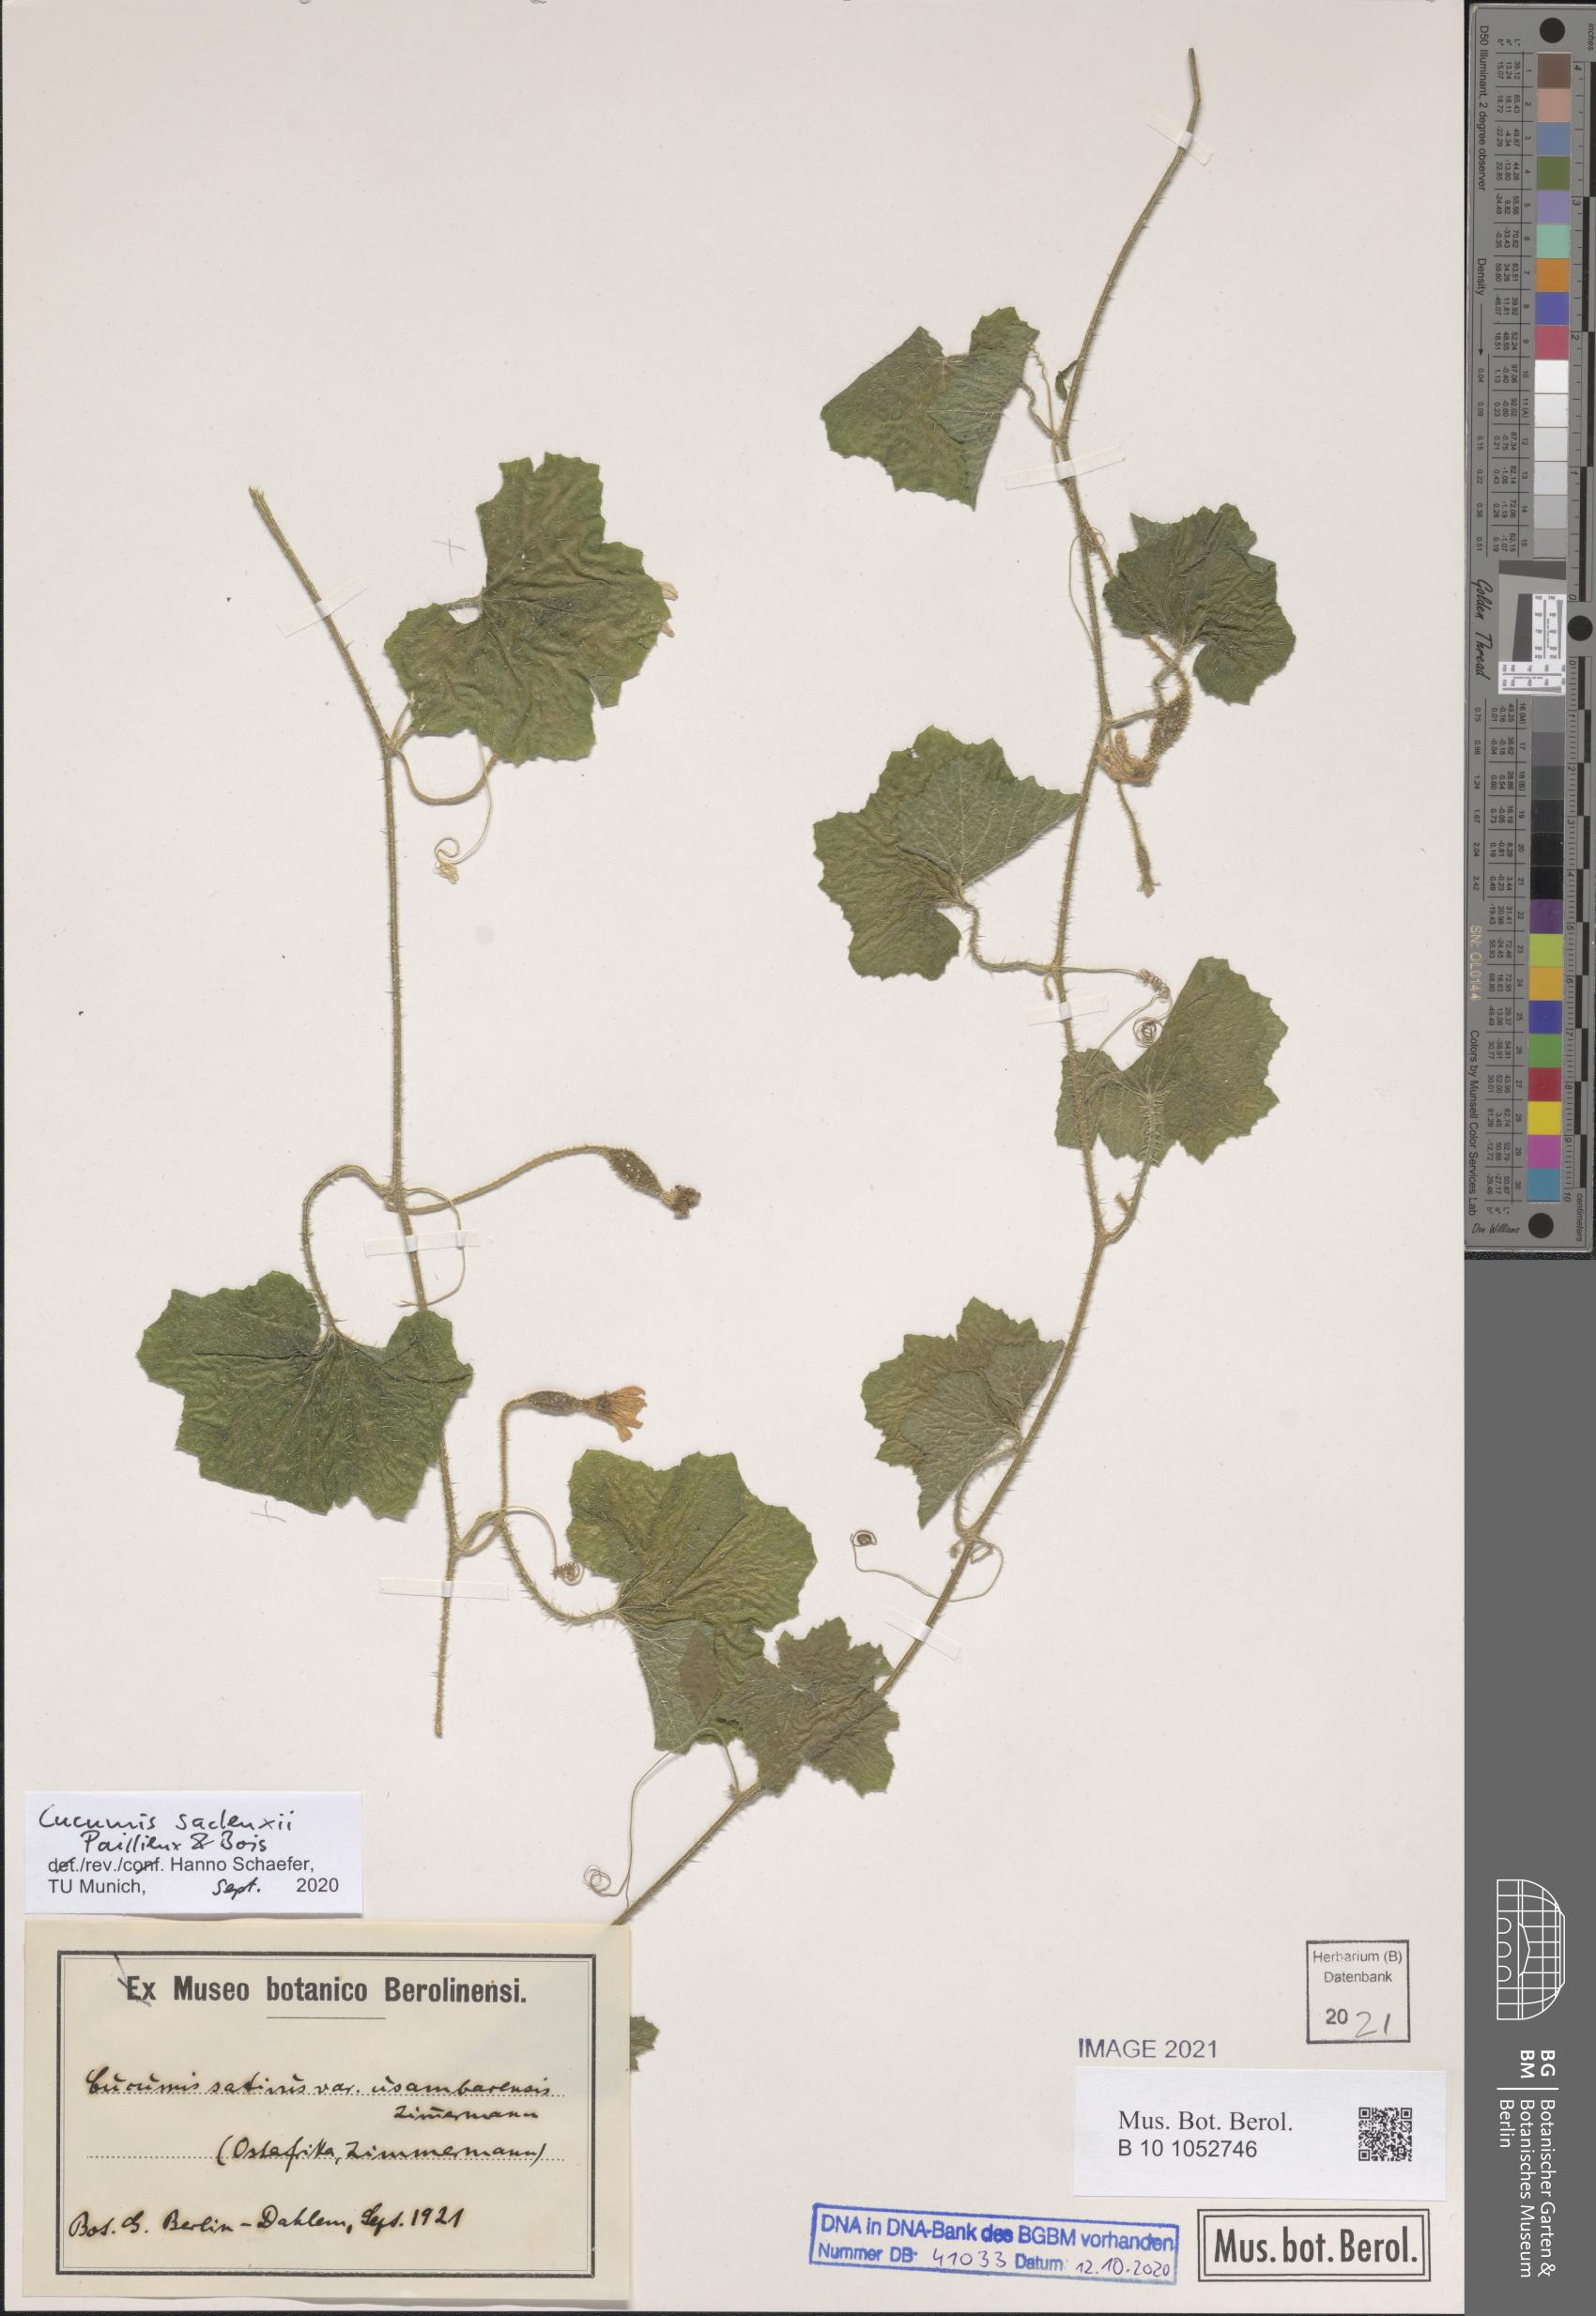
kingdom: Plantae
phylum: Tracheophyta
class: Magnoliopsida
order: Cucurbitales
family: Cucurbitaceae
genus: Cucumis
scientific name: Cucumis sacleuxii
